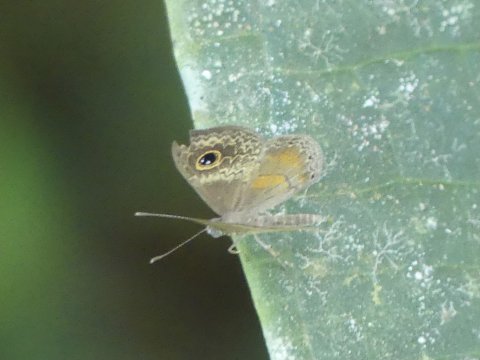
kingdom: Animalia
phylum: Arthropoda
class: Insecta
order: Lepidoptera
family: Riodinidae
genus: Perophthalma
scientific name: Perophthalma tullius
